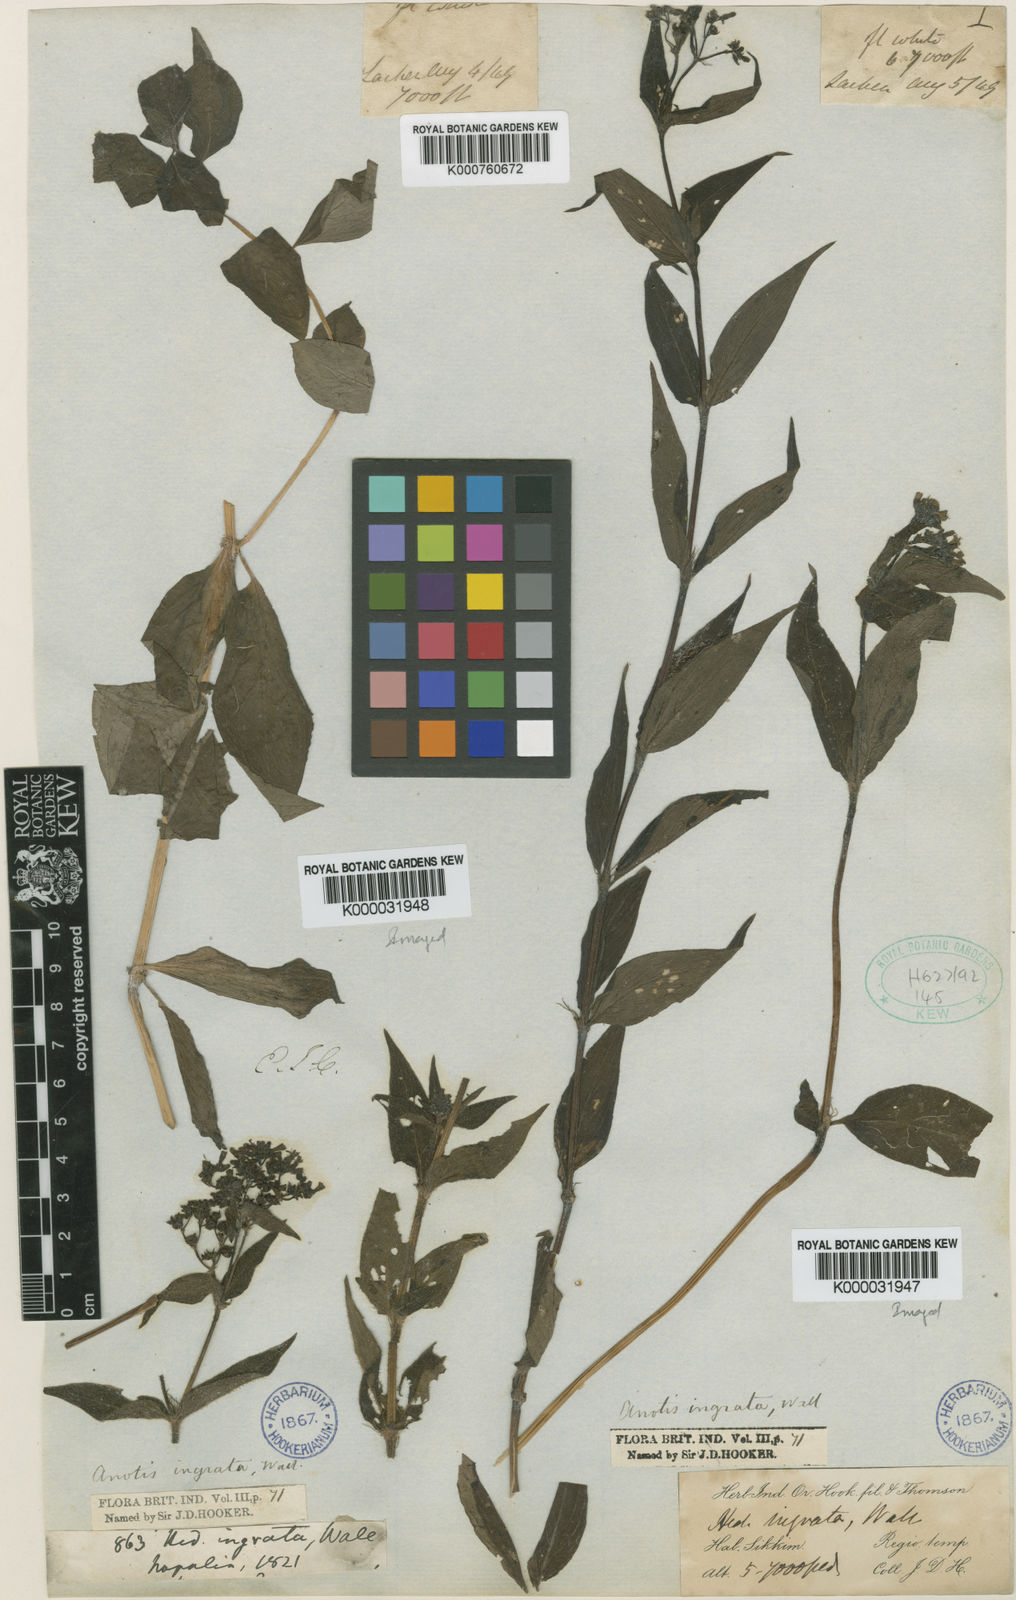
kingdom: Plantae
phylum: Tracheophyta
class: Magnoliopsida
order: Gentianales
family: Rubiaceae
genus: Neanotis
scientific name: Neanotis ingrata
